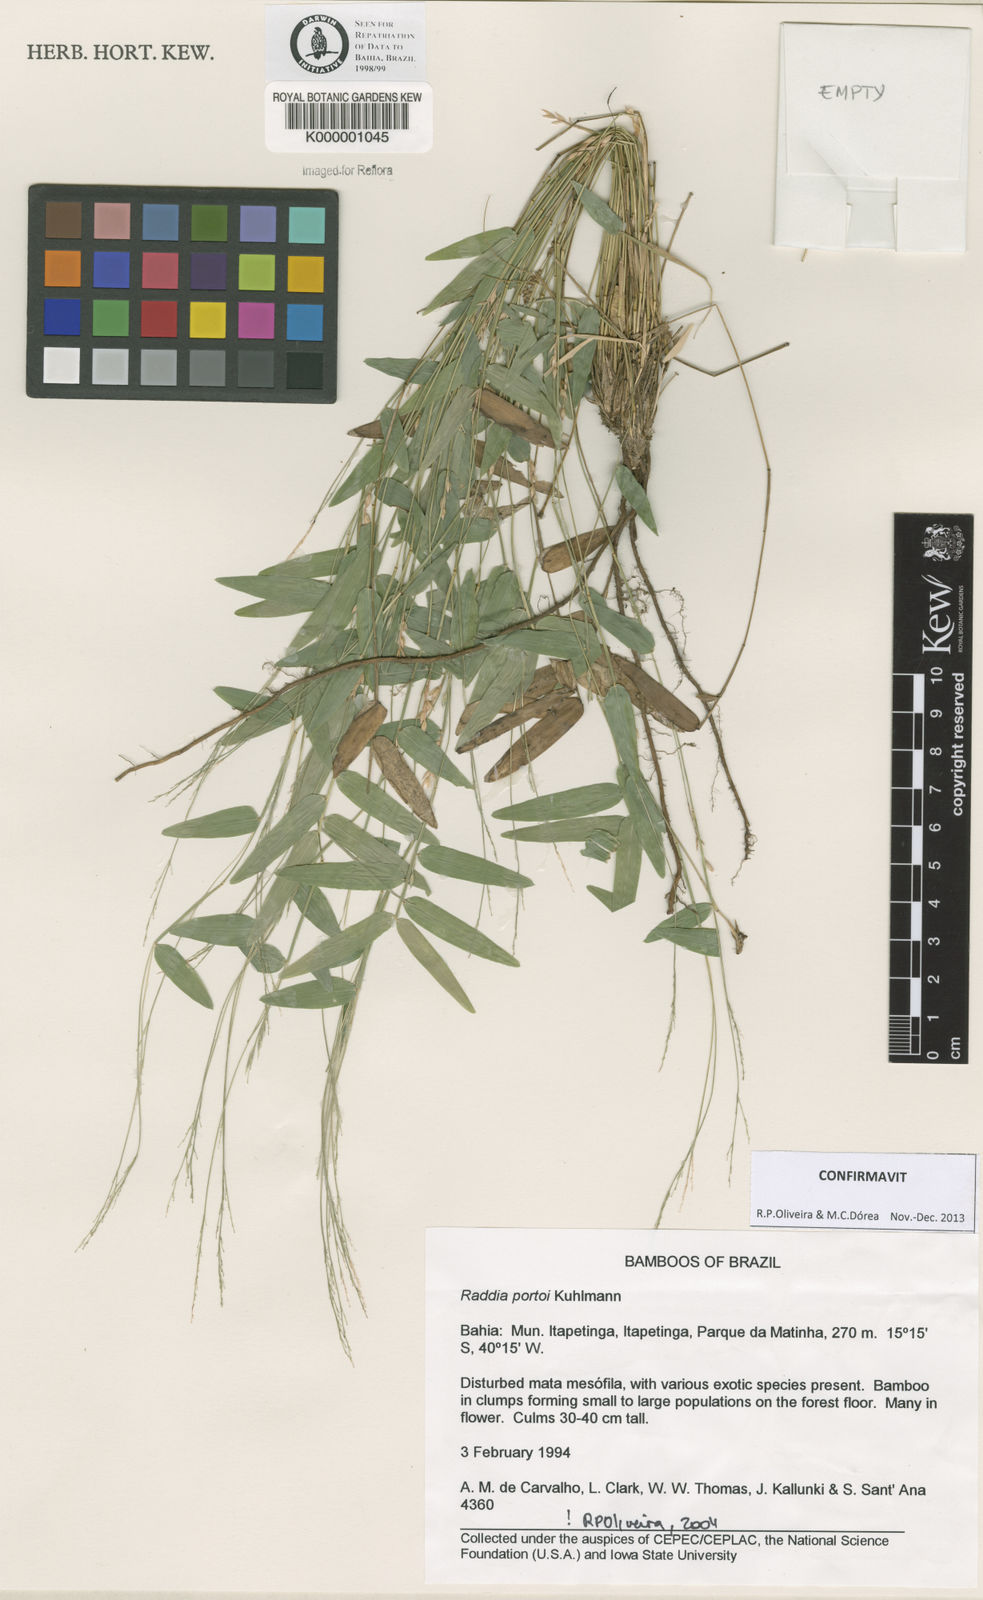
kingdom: Plantae
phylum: Tracheophyta
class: Liliopsida
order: Poales
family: Poaceae
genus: Raddia
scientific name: Raddia portoi
